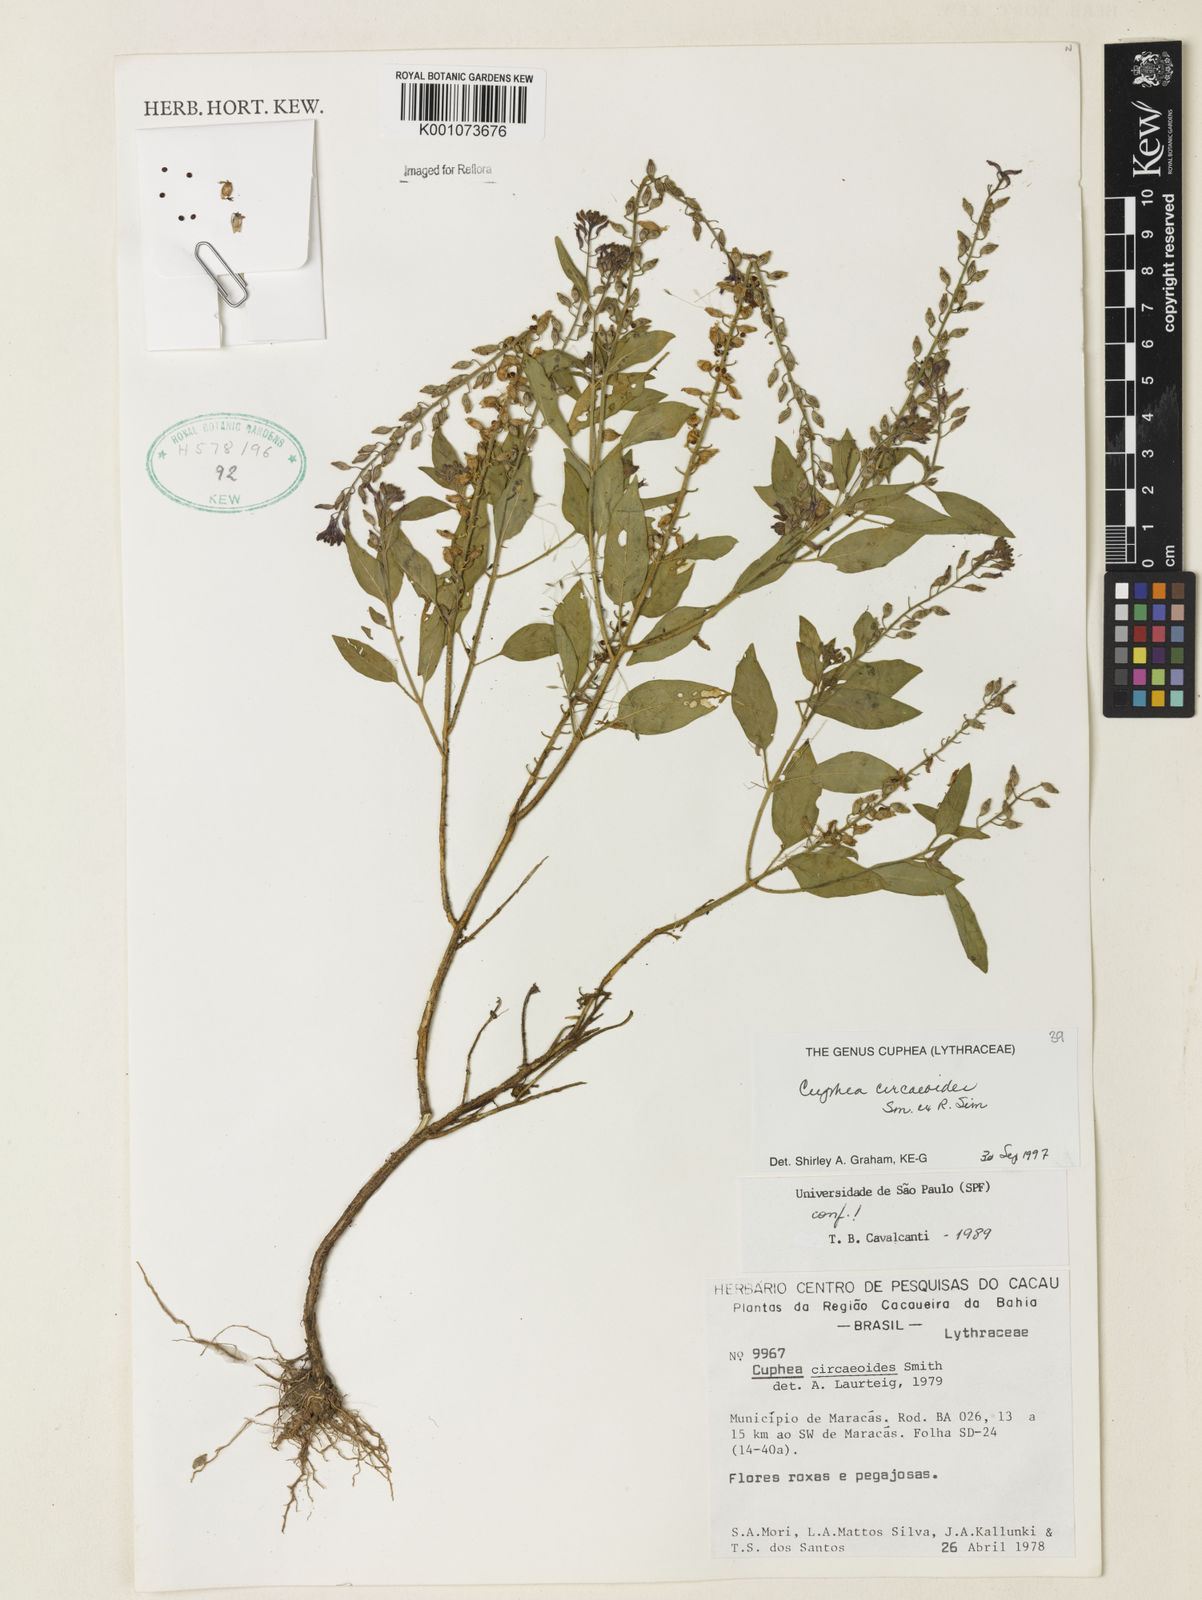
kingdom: Plantae
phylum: Tracheophyta
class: Magnoliopsida
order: Myrtales
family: Lythraceae
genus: Cuphea
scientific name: Cuphea circaeoides
